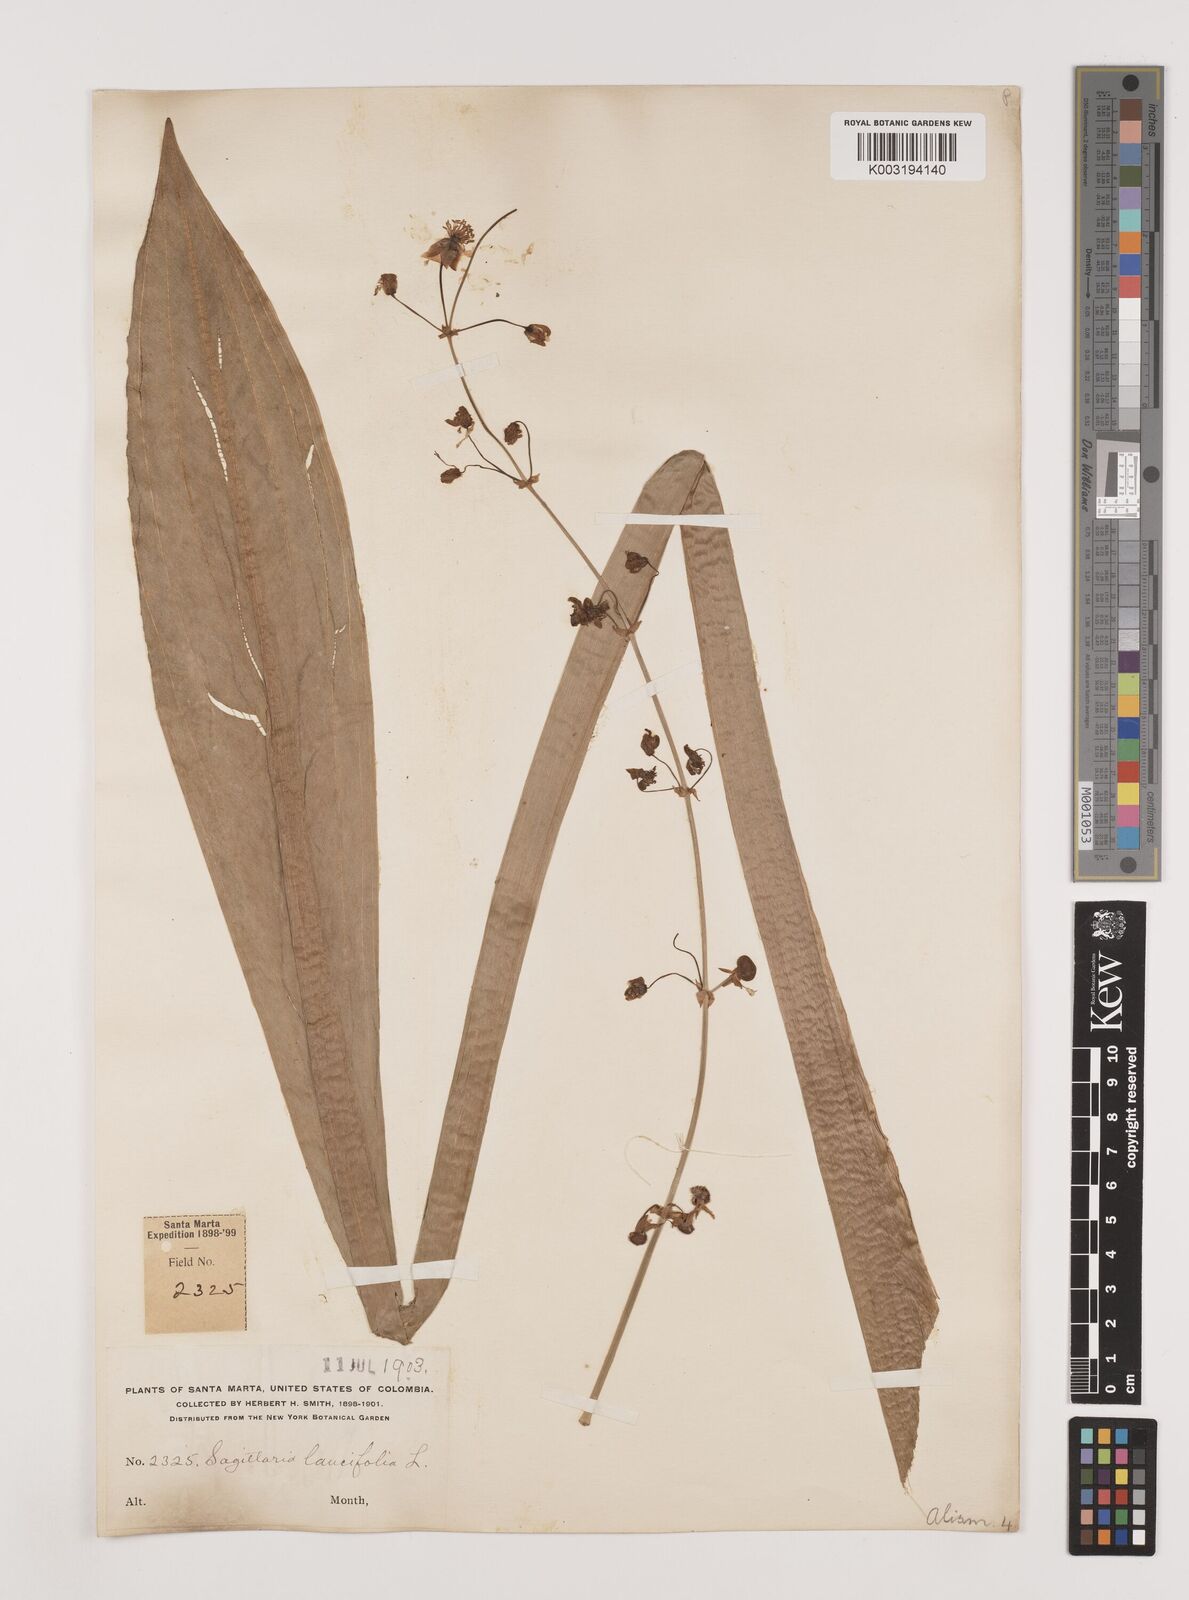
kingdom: Plantae
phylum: Tracheophyta
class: Liliopsida
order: Alismatales
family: Alismataceae
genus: Sagittaria
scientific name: Sagittaria lancifolia
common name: Lance-leaf arrowhead
